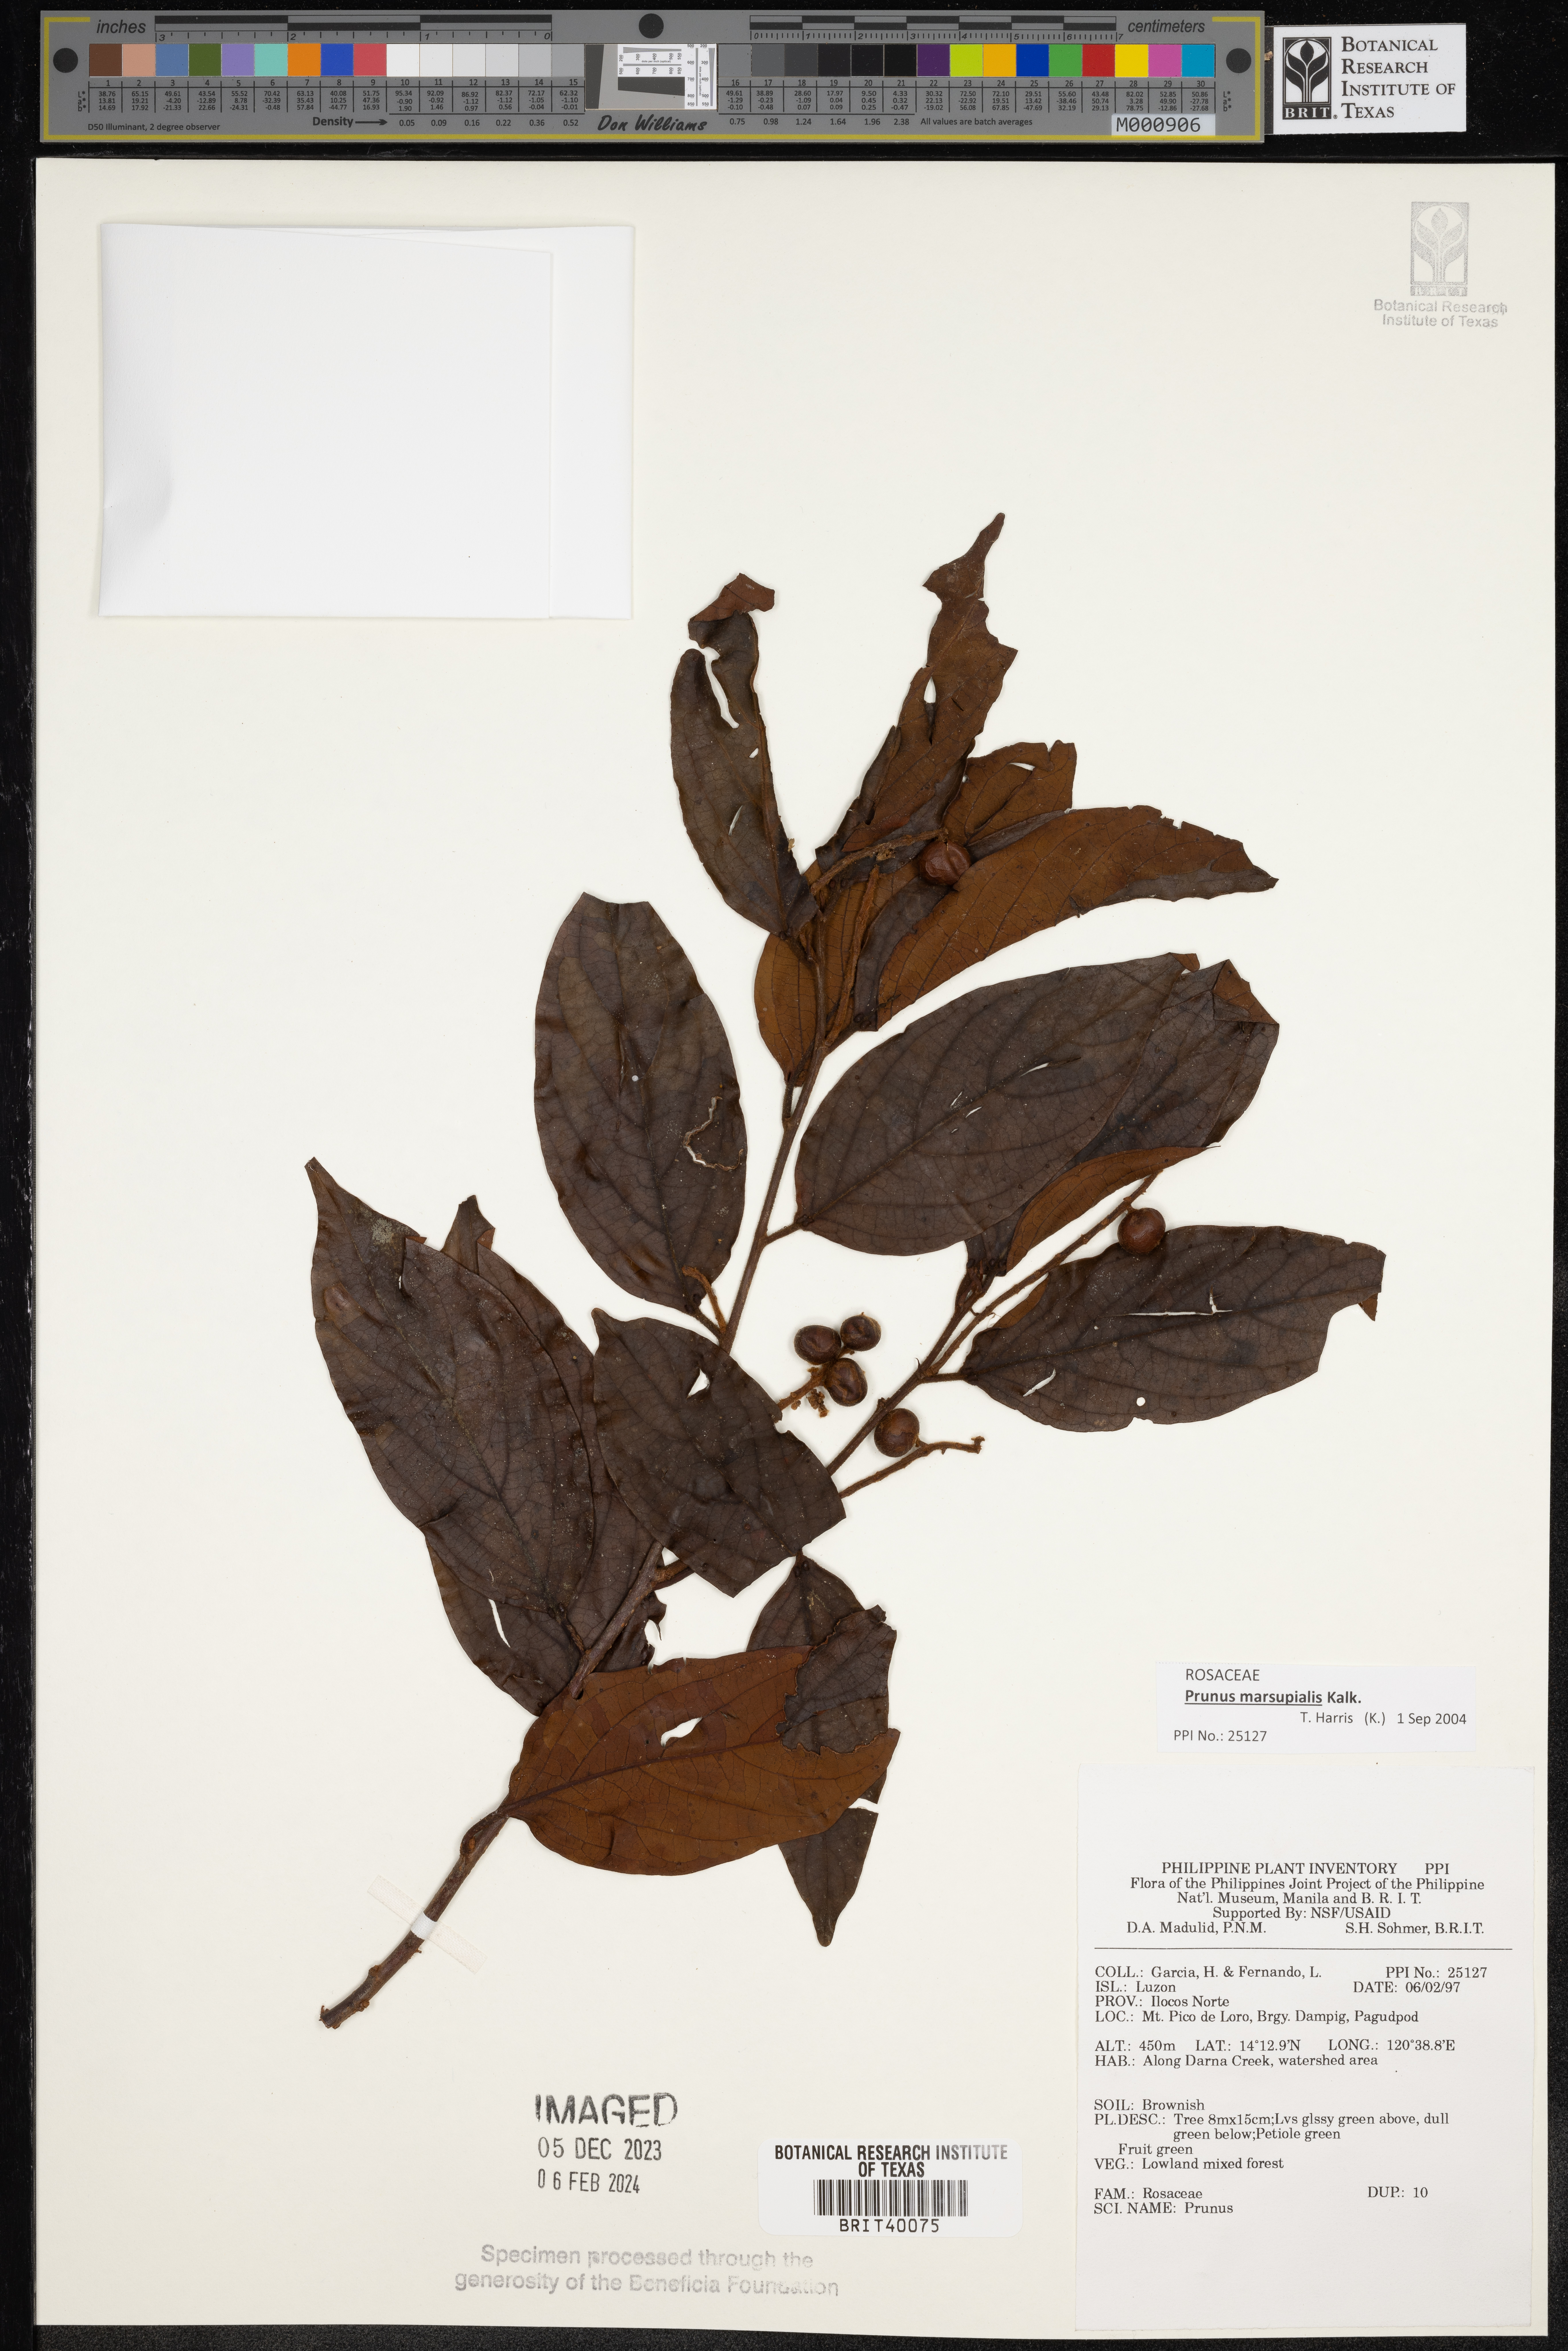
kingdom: Plantae
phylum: Tracheophyta
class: Magnoliopsida
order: Rosales
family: Rosaceae
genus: Prunus
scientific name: Prunus
